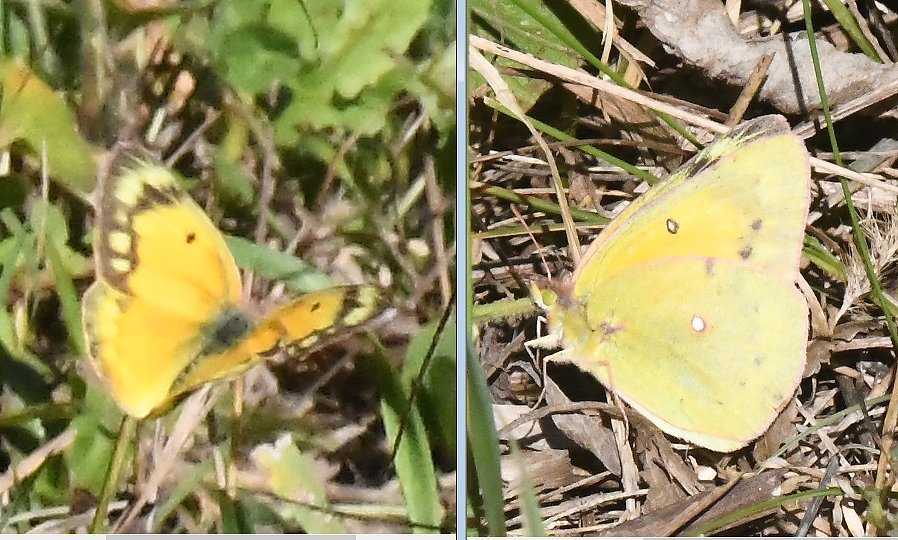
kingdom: Animalia
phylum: Arthropoda
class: Insecta
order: Lepidoptera
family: Pieridae
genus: Colias
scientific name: Colias eurytheme
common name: Orange Sulphur
